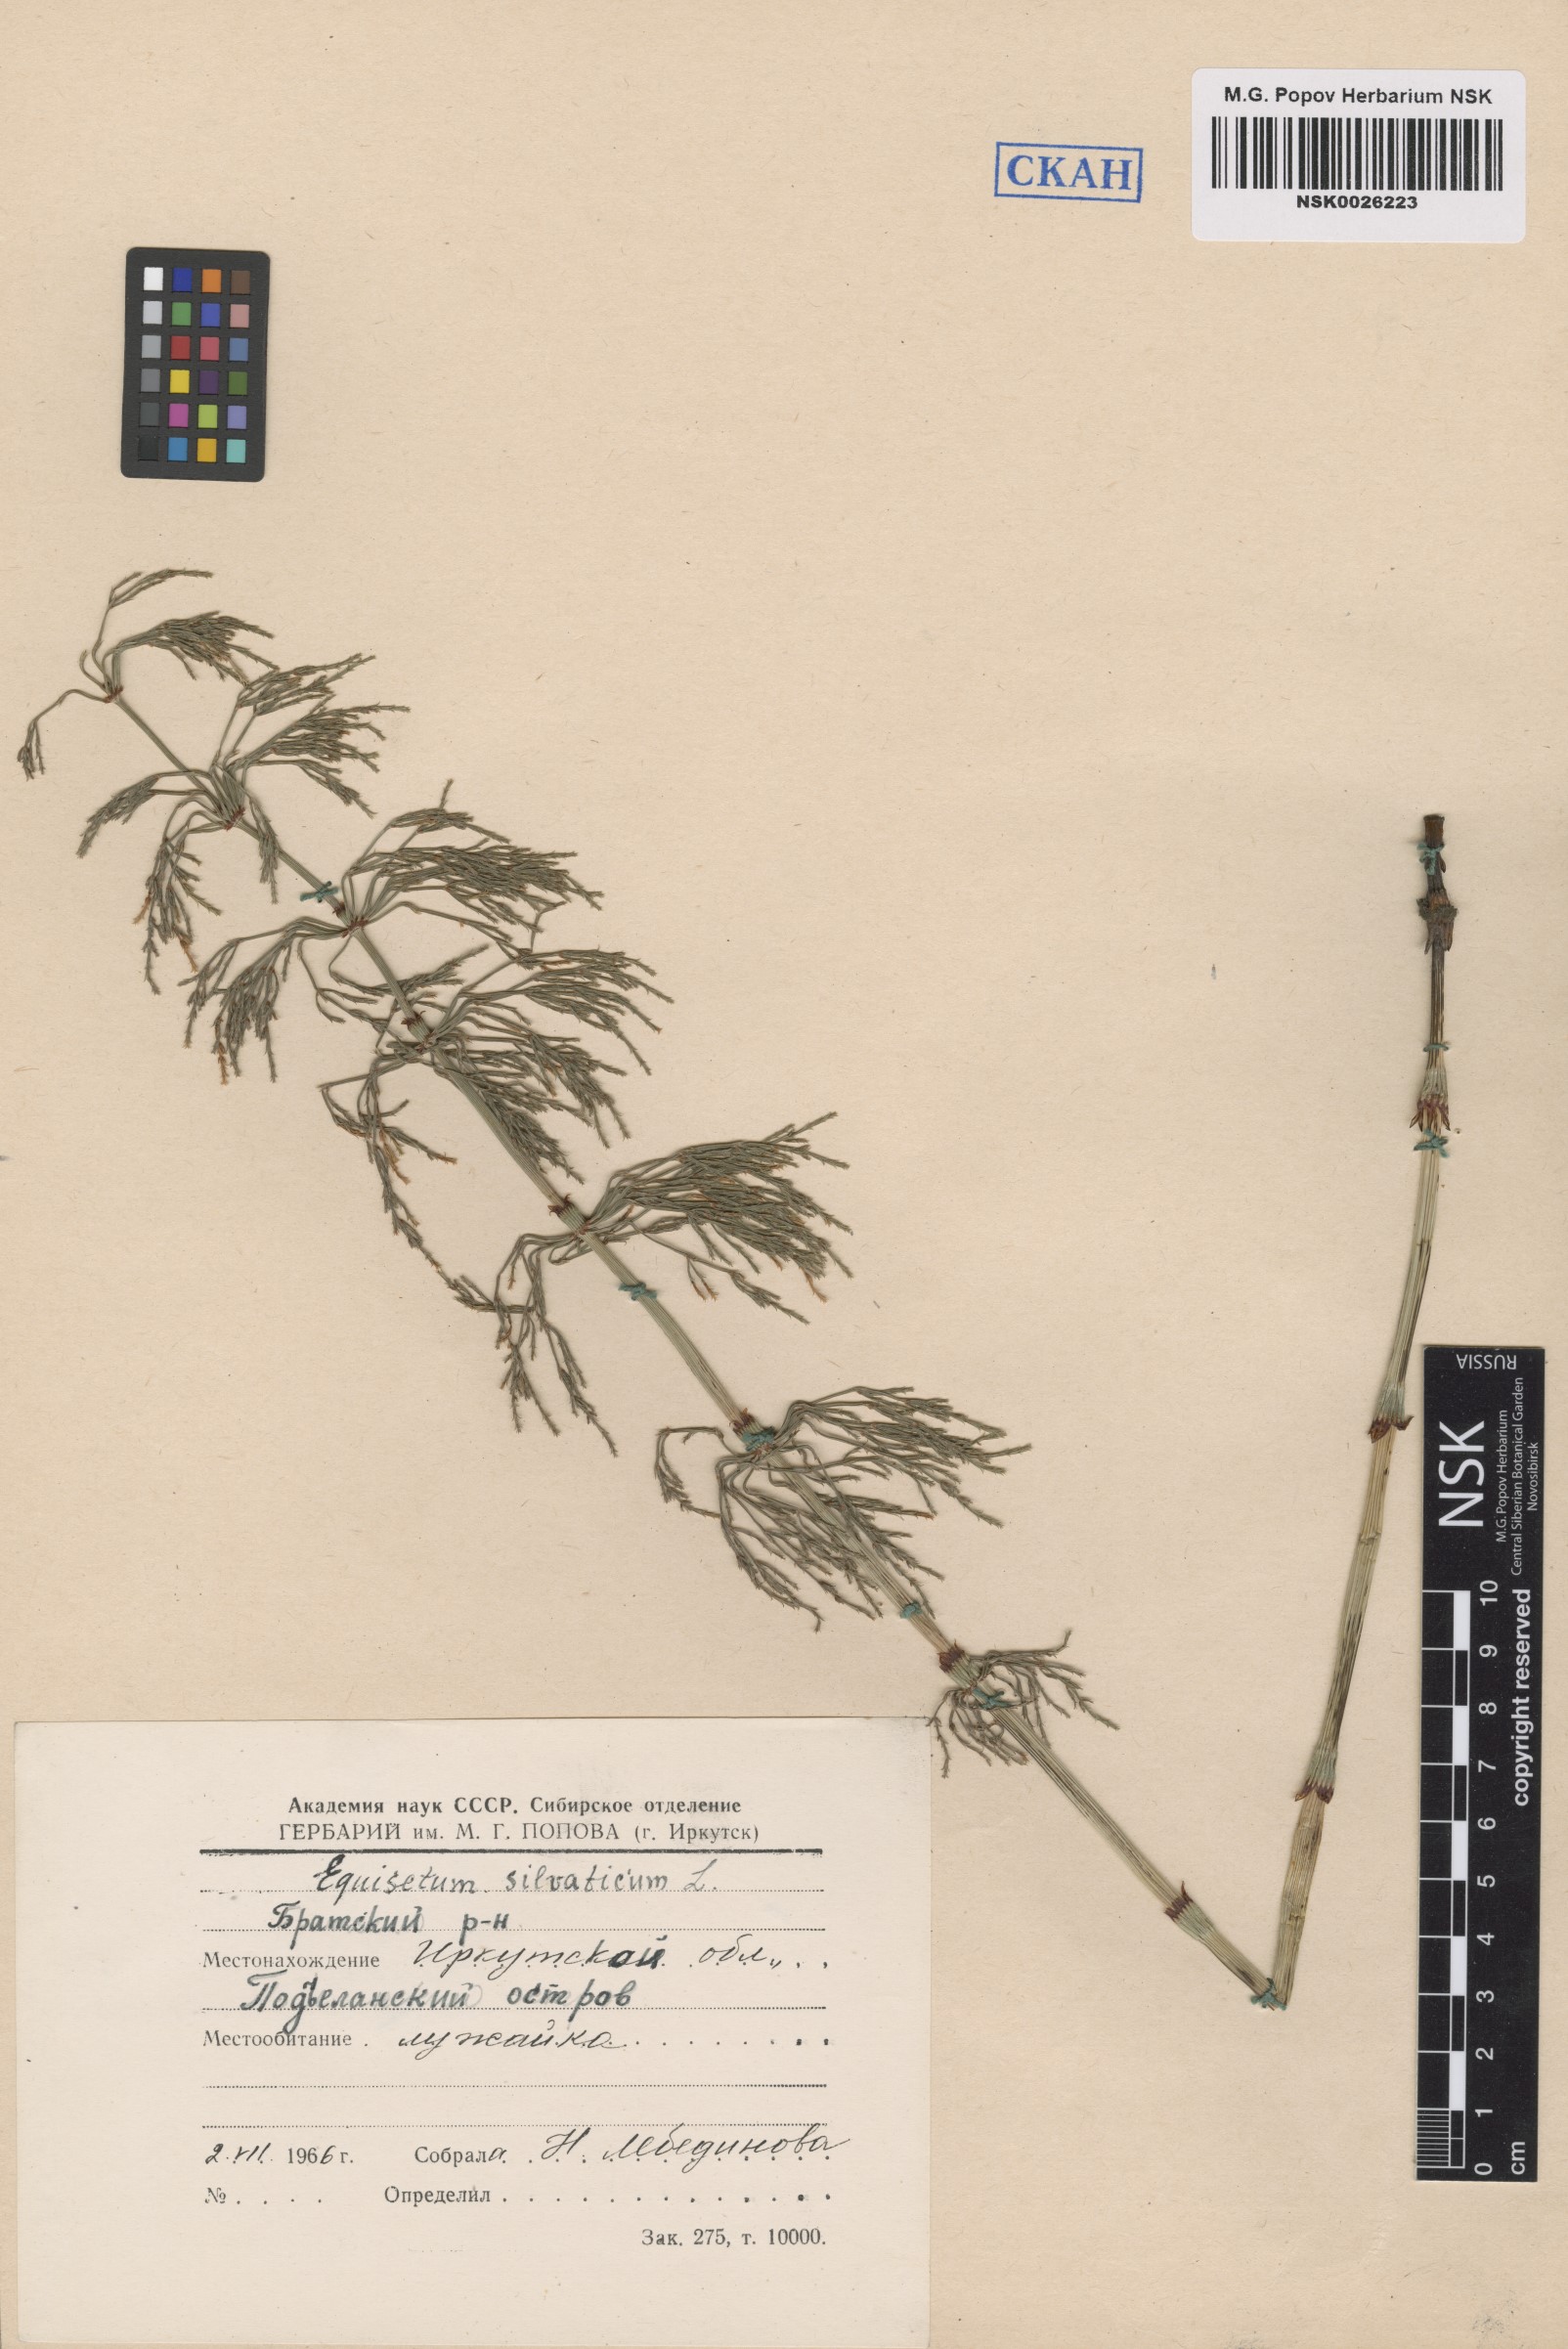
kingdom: Plantae
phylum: Tracheophyta
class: Polypodiopsida
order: Equisetales
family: Equisetaceae
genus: Equisetum
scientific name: Equisetum sylvaticum
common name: Wood horsetail
